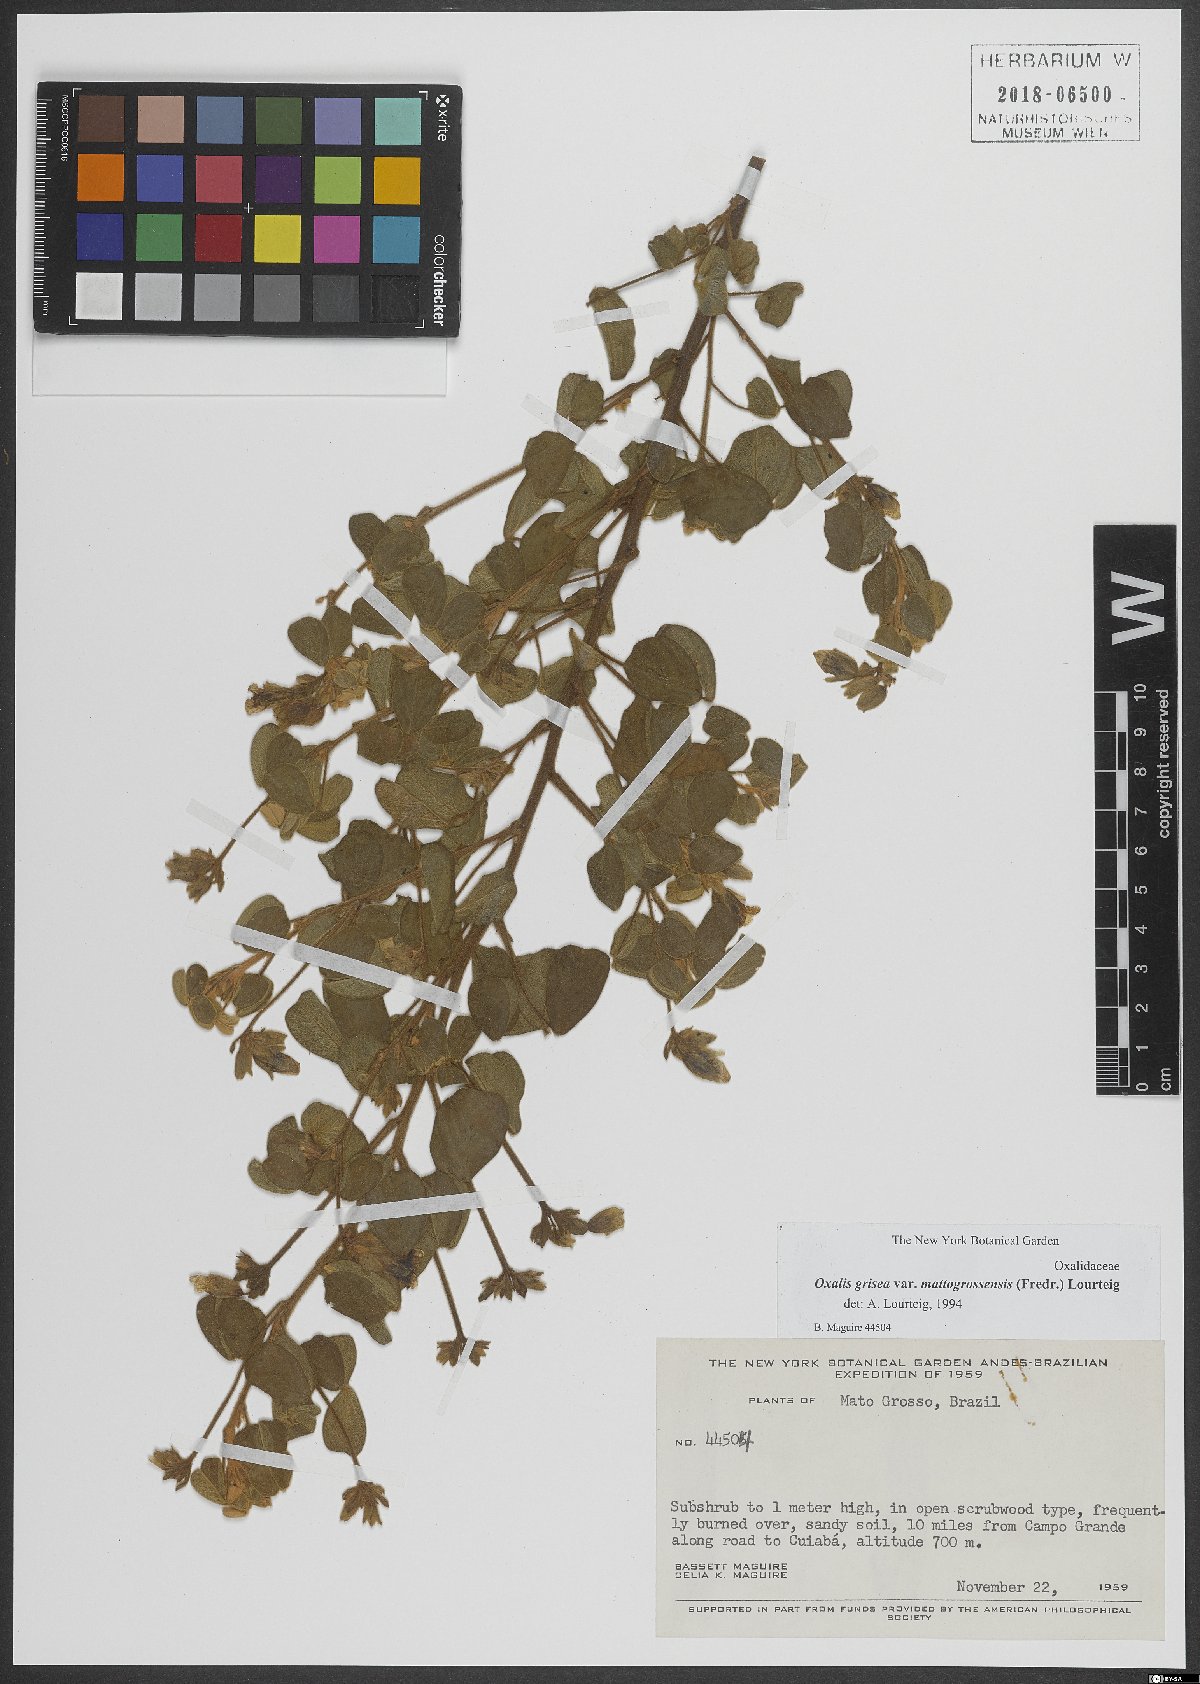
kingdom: Plantae
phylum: Tracheophyta
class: Magnoliopsida
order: Oxalidales
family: Oxalidaceae
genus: Oxalis
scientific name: Oxalis grisea
